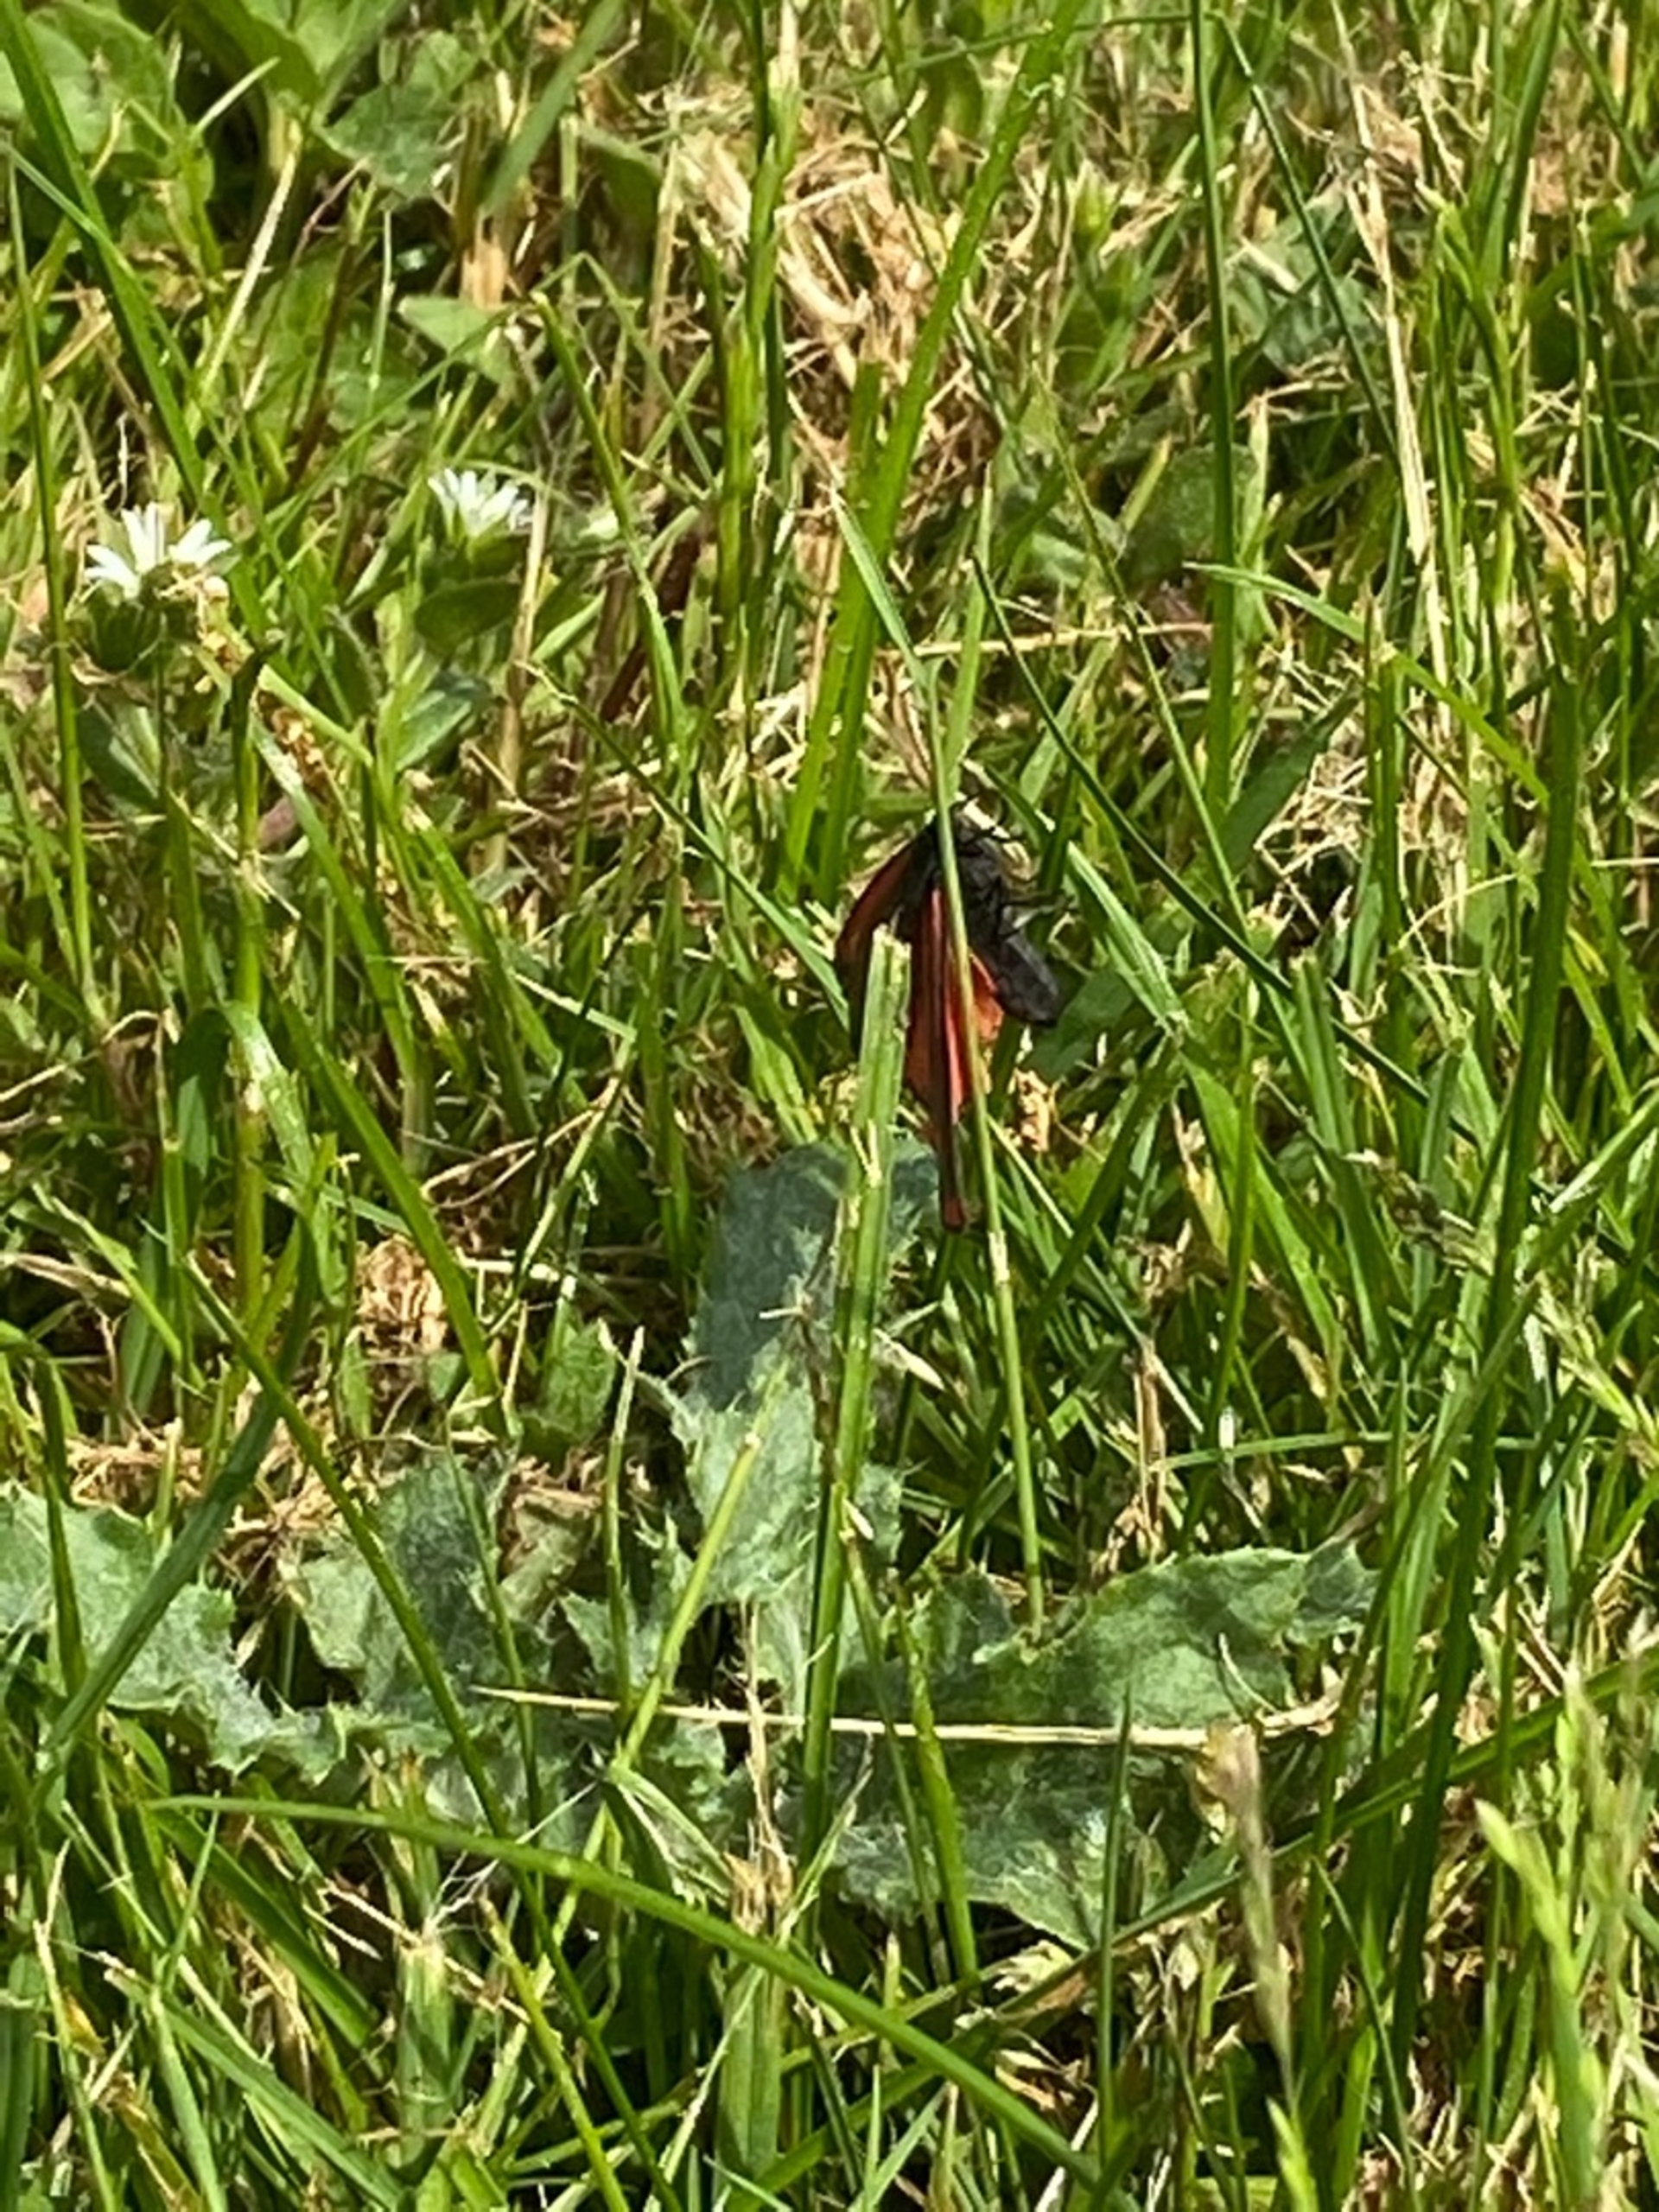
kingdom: Animalia
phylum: Arthropoda
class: Insecta
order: Lepidoptera
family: Erebidae
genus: Tyria
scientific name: Tyria jacobaeae
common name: Blodplet
